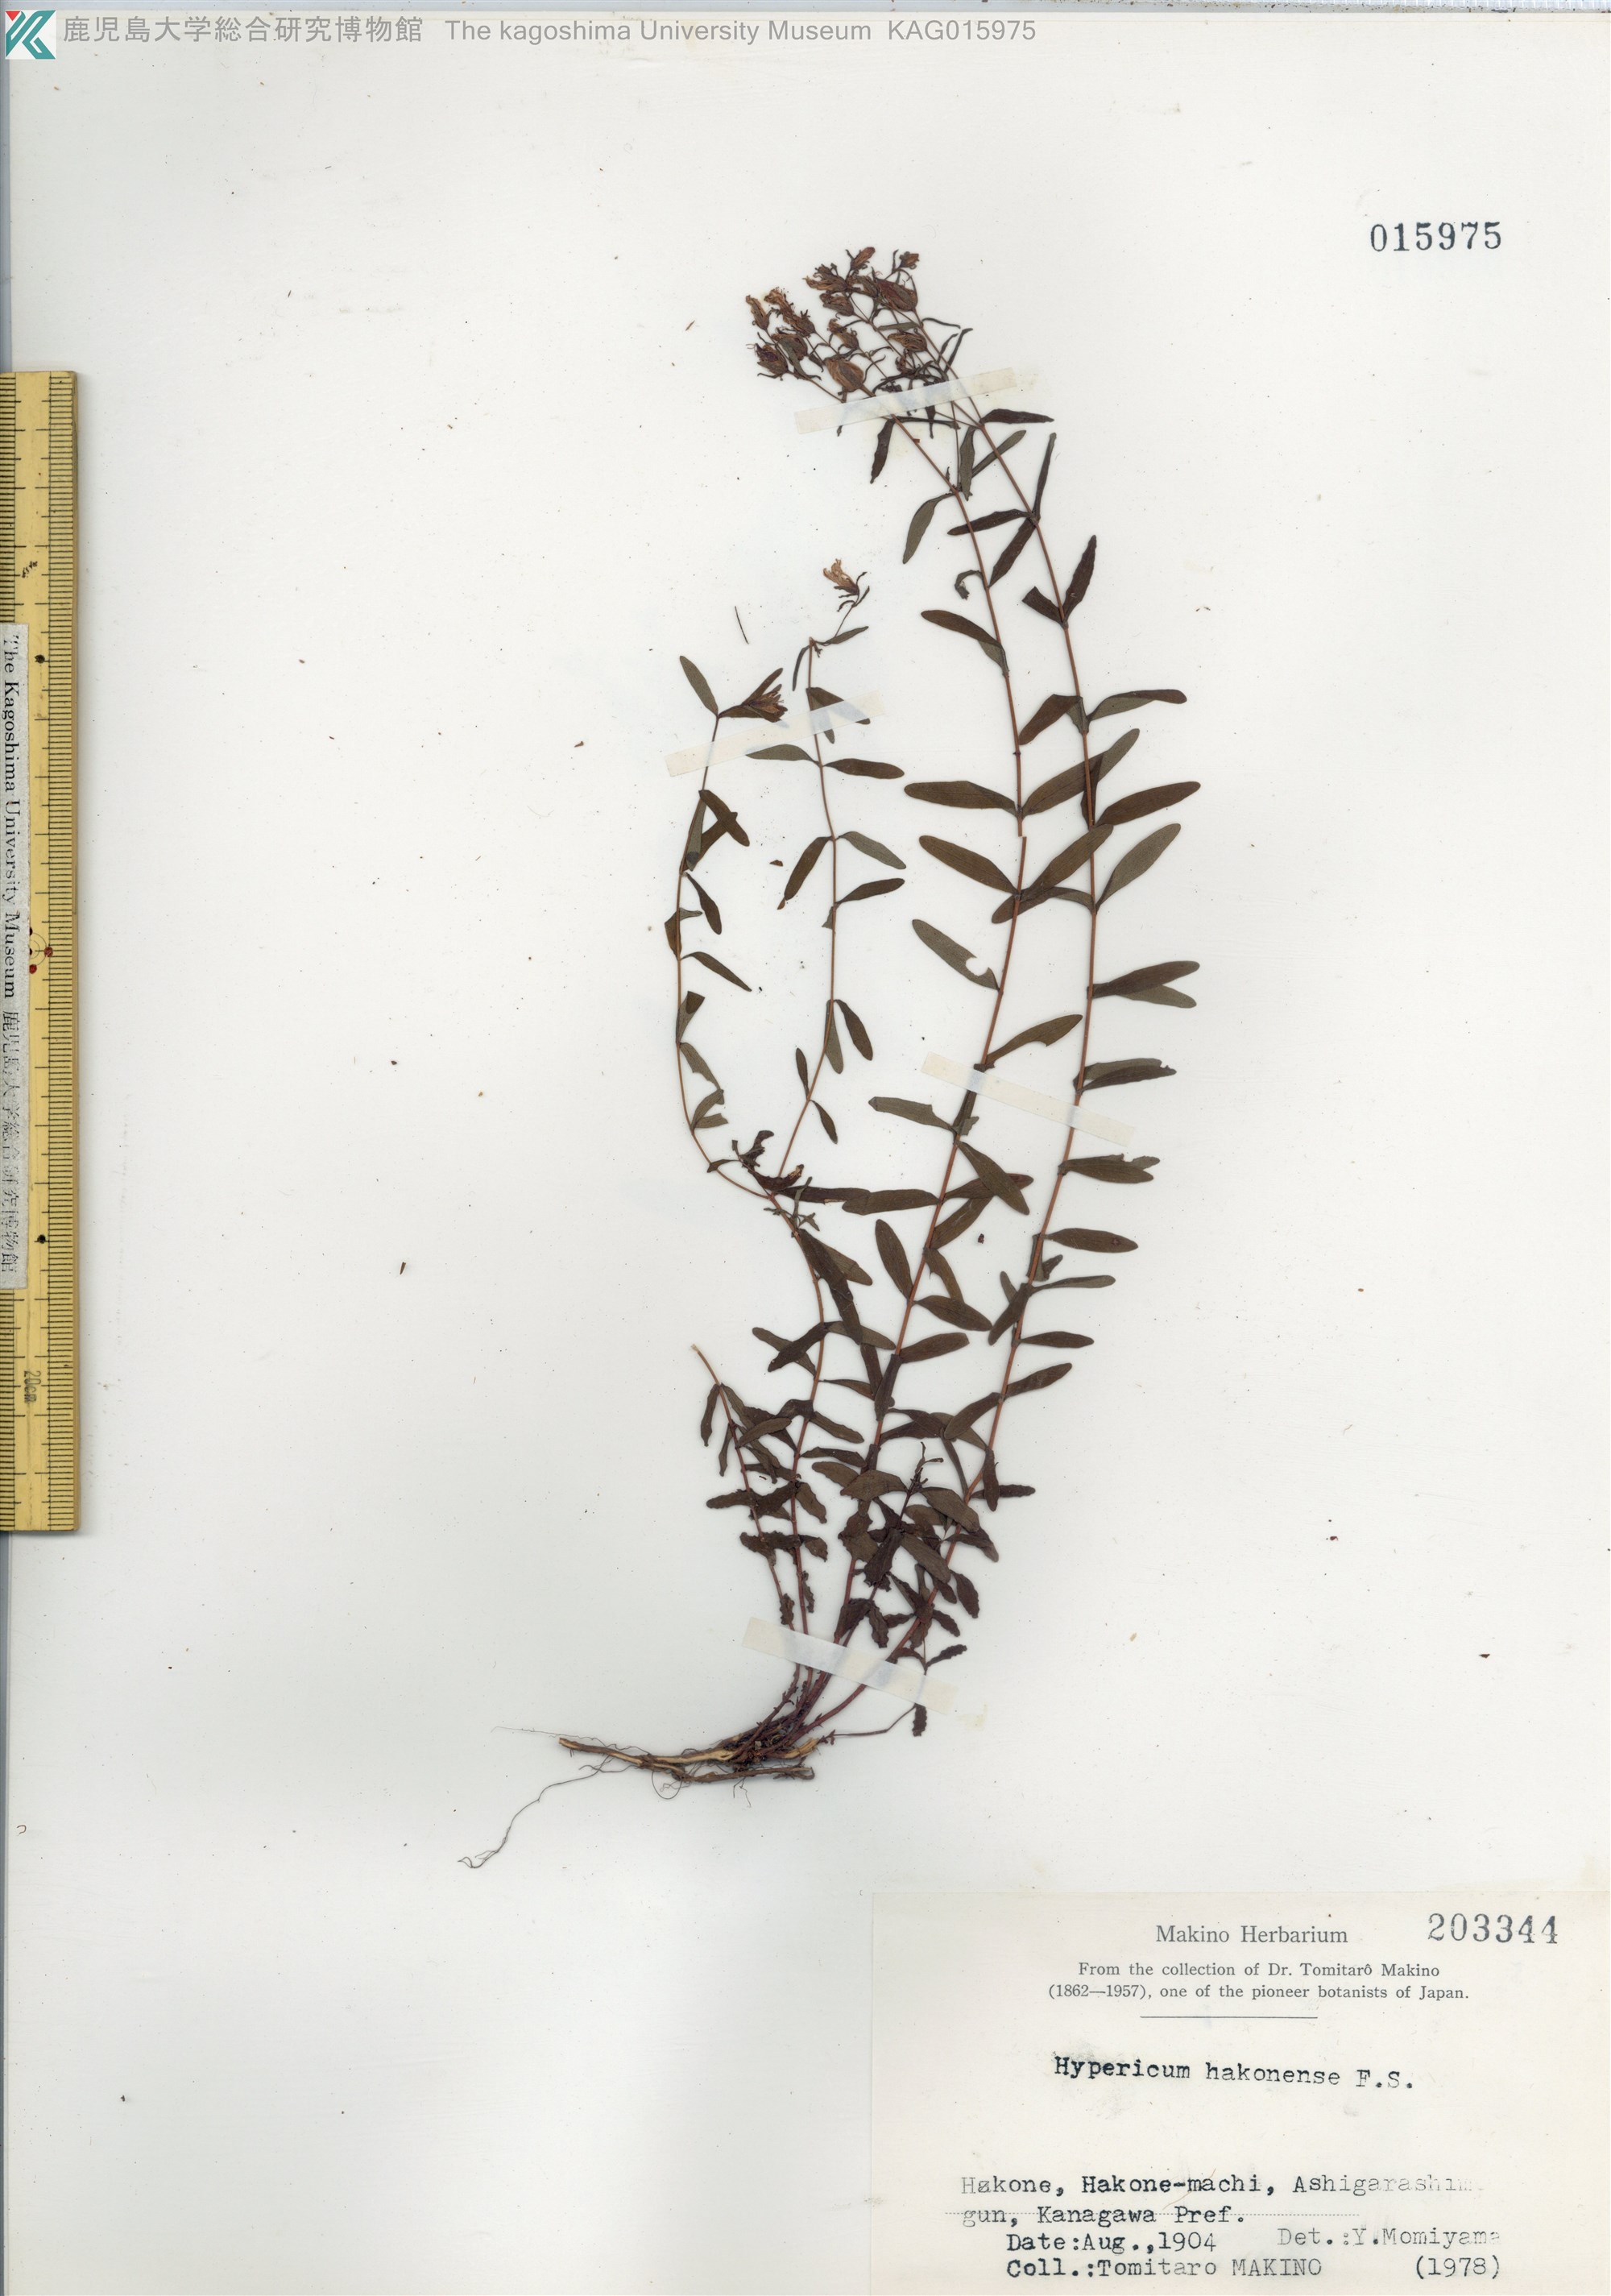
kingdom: Plantae
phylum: Tracheophyta
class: Magnoliopsida
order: Malpighiales
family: Hypericaceae
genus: Hypericum
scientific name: Hypericum hakonense
